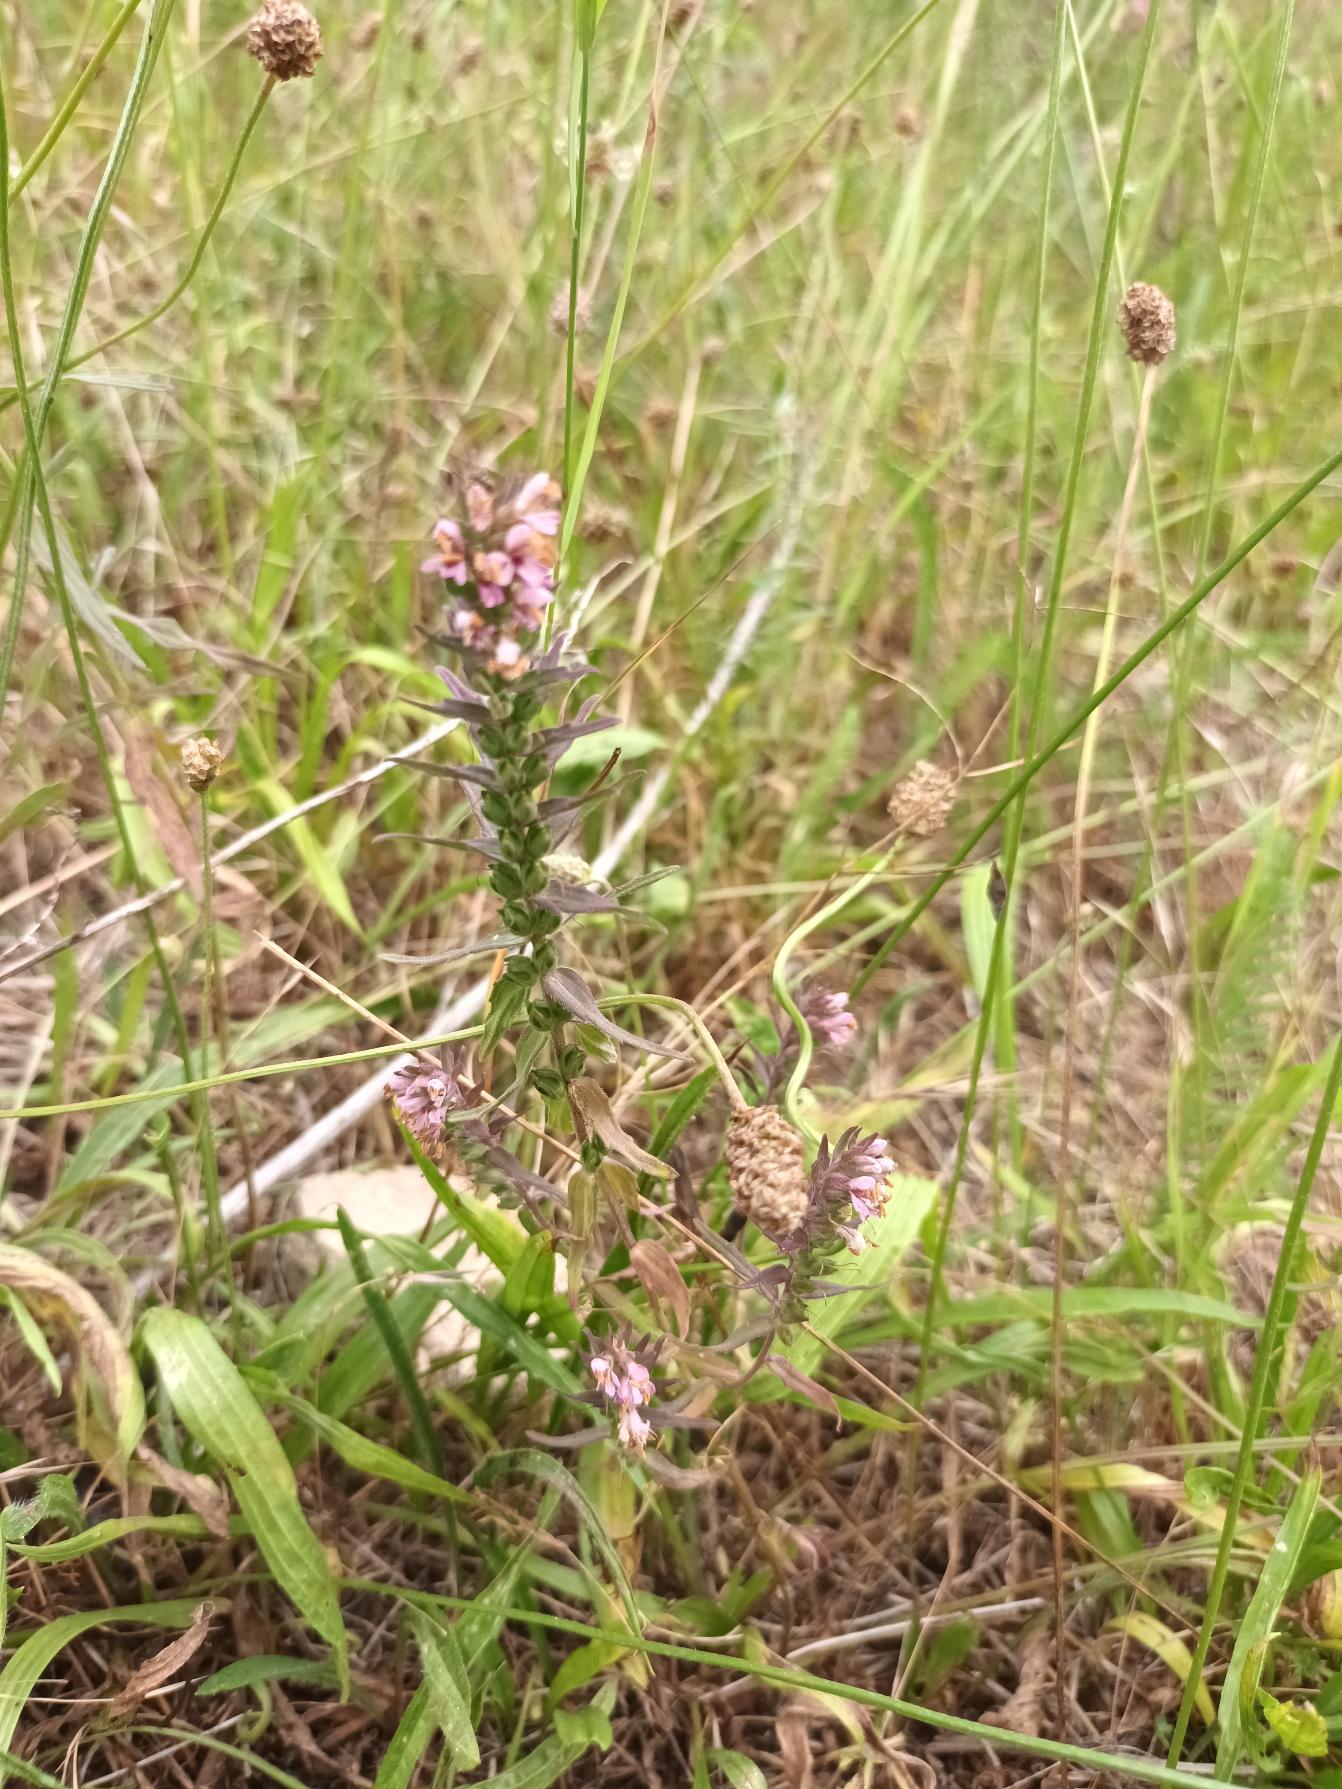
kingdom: Plantae
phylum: Tracheophyta
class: Magnoliopsida
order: Lamiales
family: Orobanchaceae
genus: Odontites
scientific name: Odontites vernus
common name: Mark-rødtop
